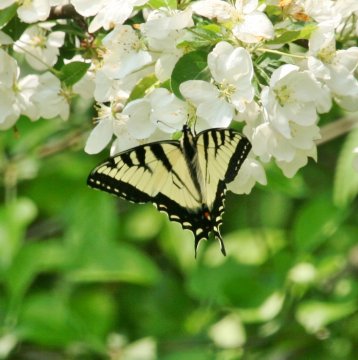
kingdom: Animalia
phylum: Arthropoda
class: Insecta
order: Lepidoptera
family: Papilionidae
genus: Pterourus
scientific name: Pterourus
